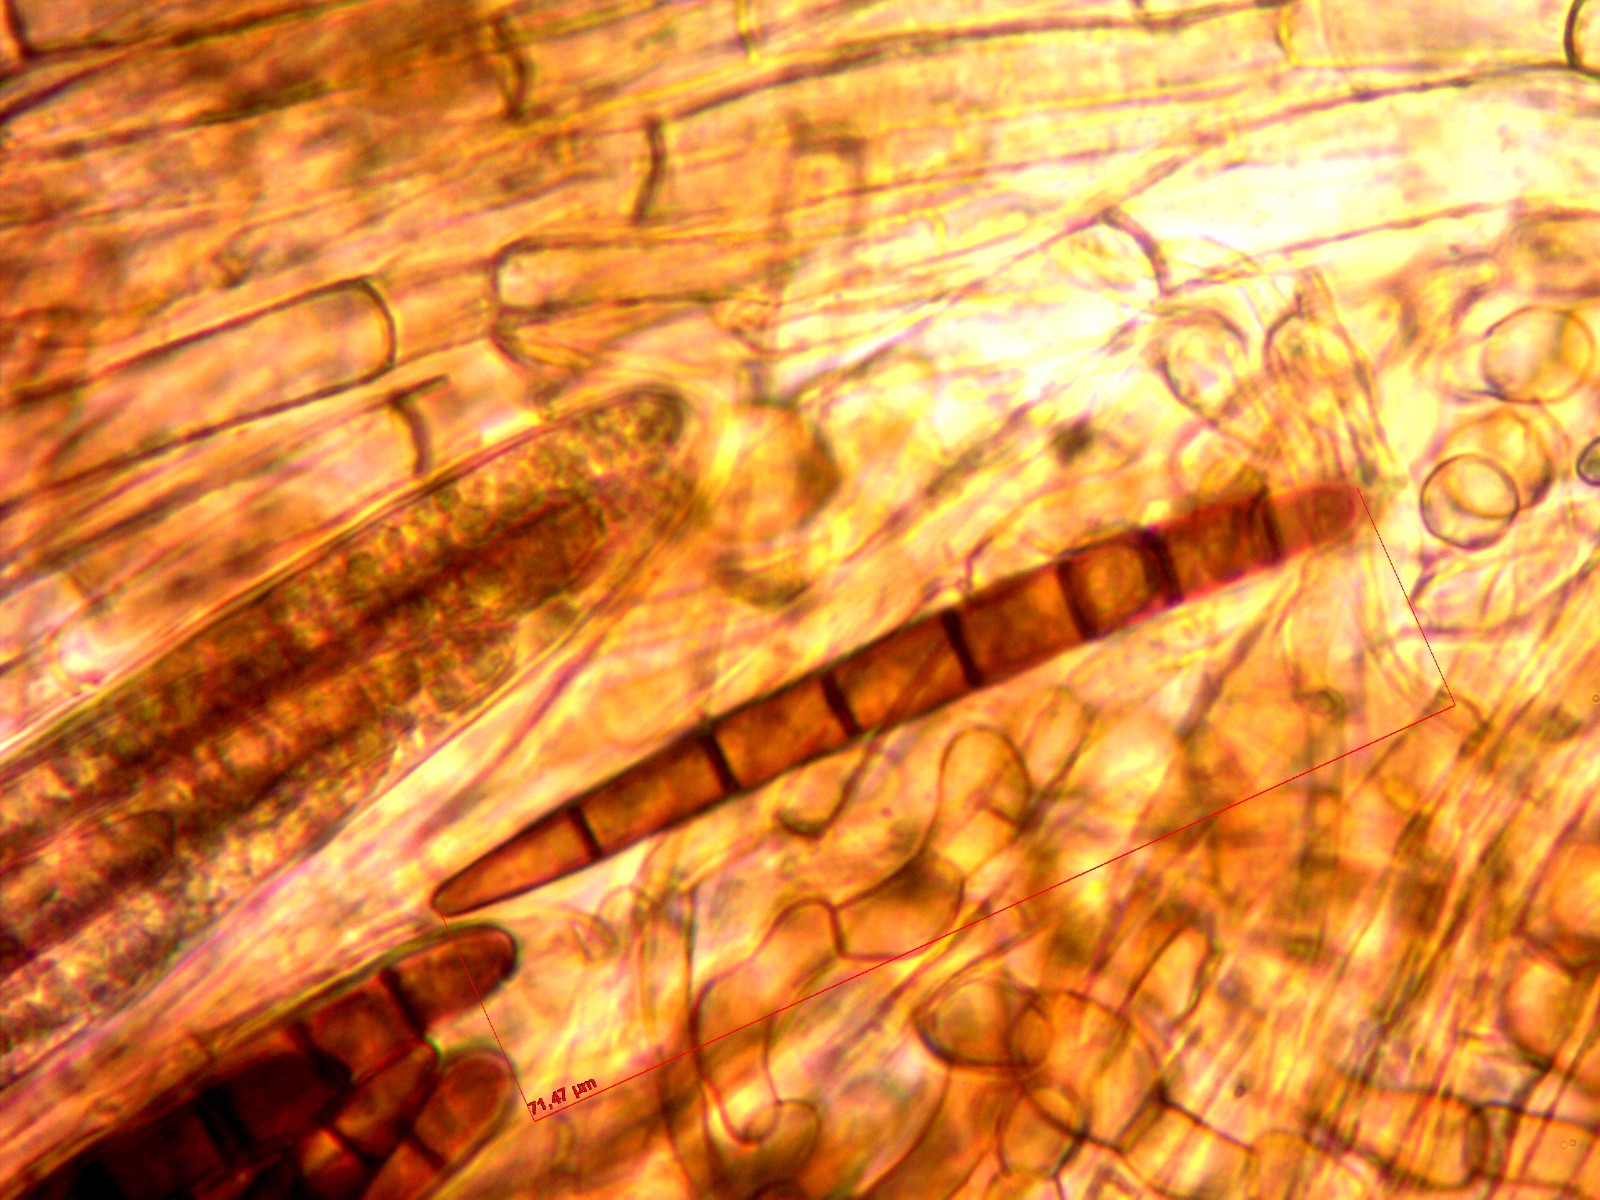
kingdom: Fungi
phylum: Ascomycota
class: Geoglossomycetes
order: Geoglossales
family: Geoglossaceae
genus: Geoglossum
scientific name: Geoglossum cookeianum
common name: bred jordtunge
